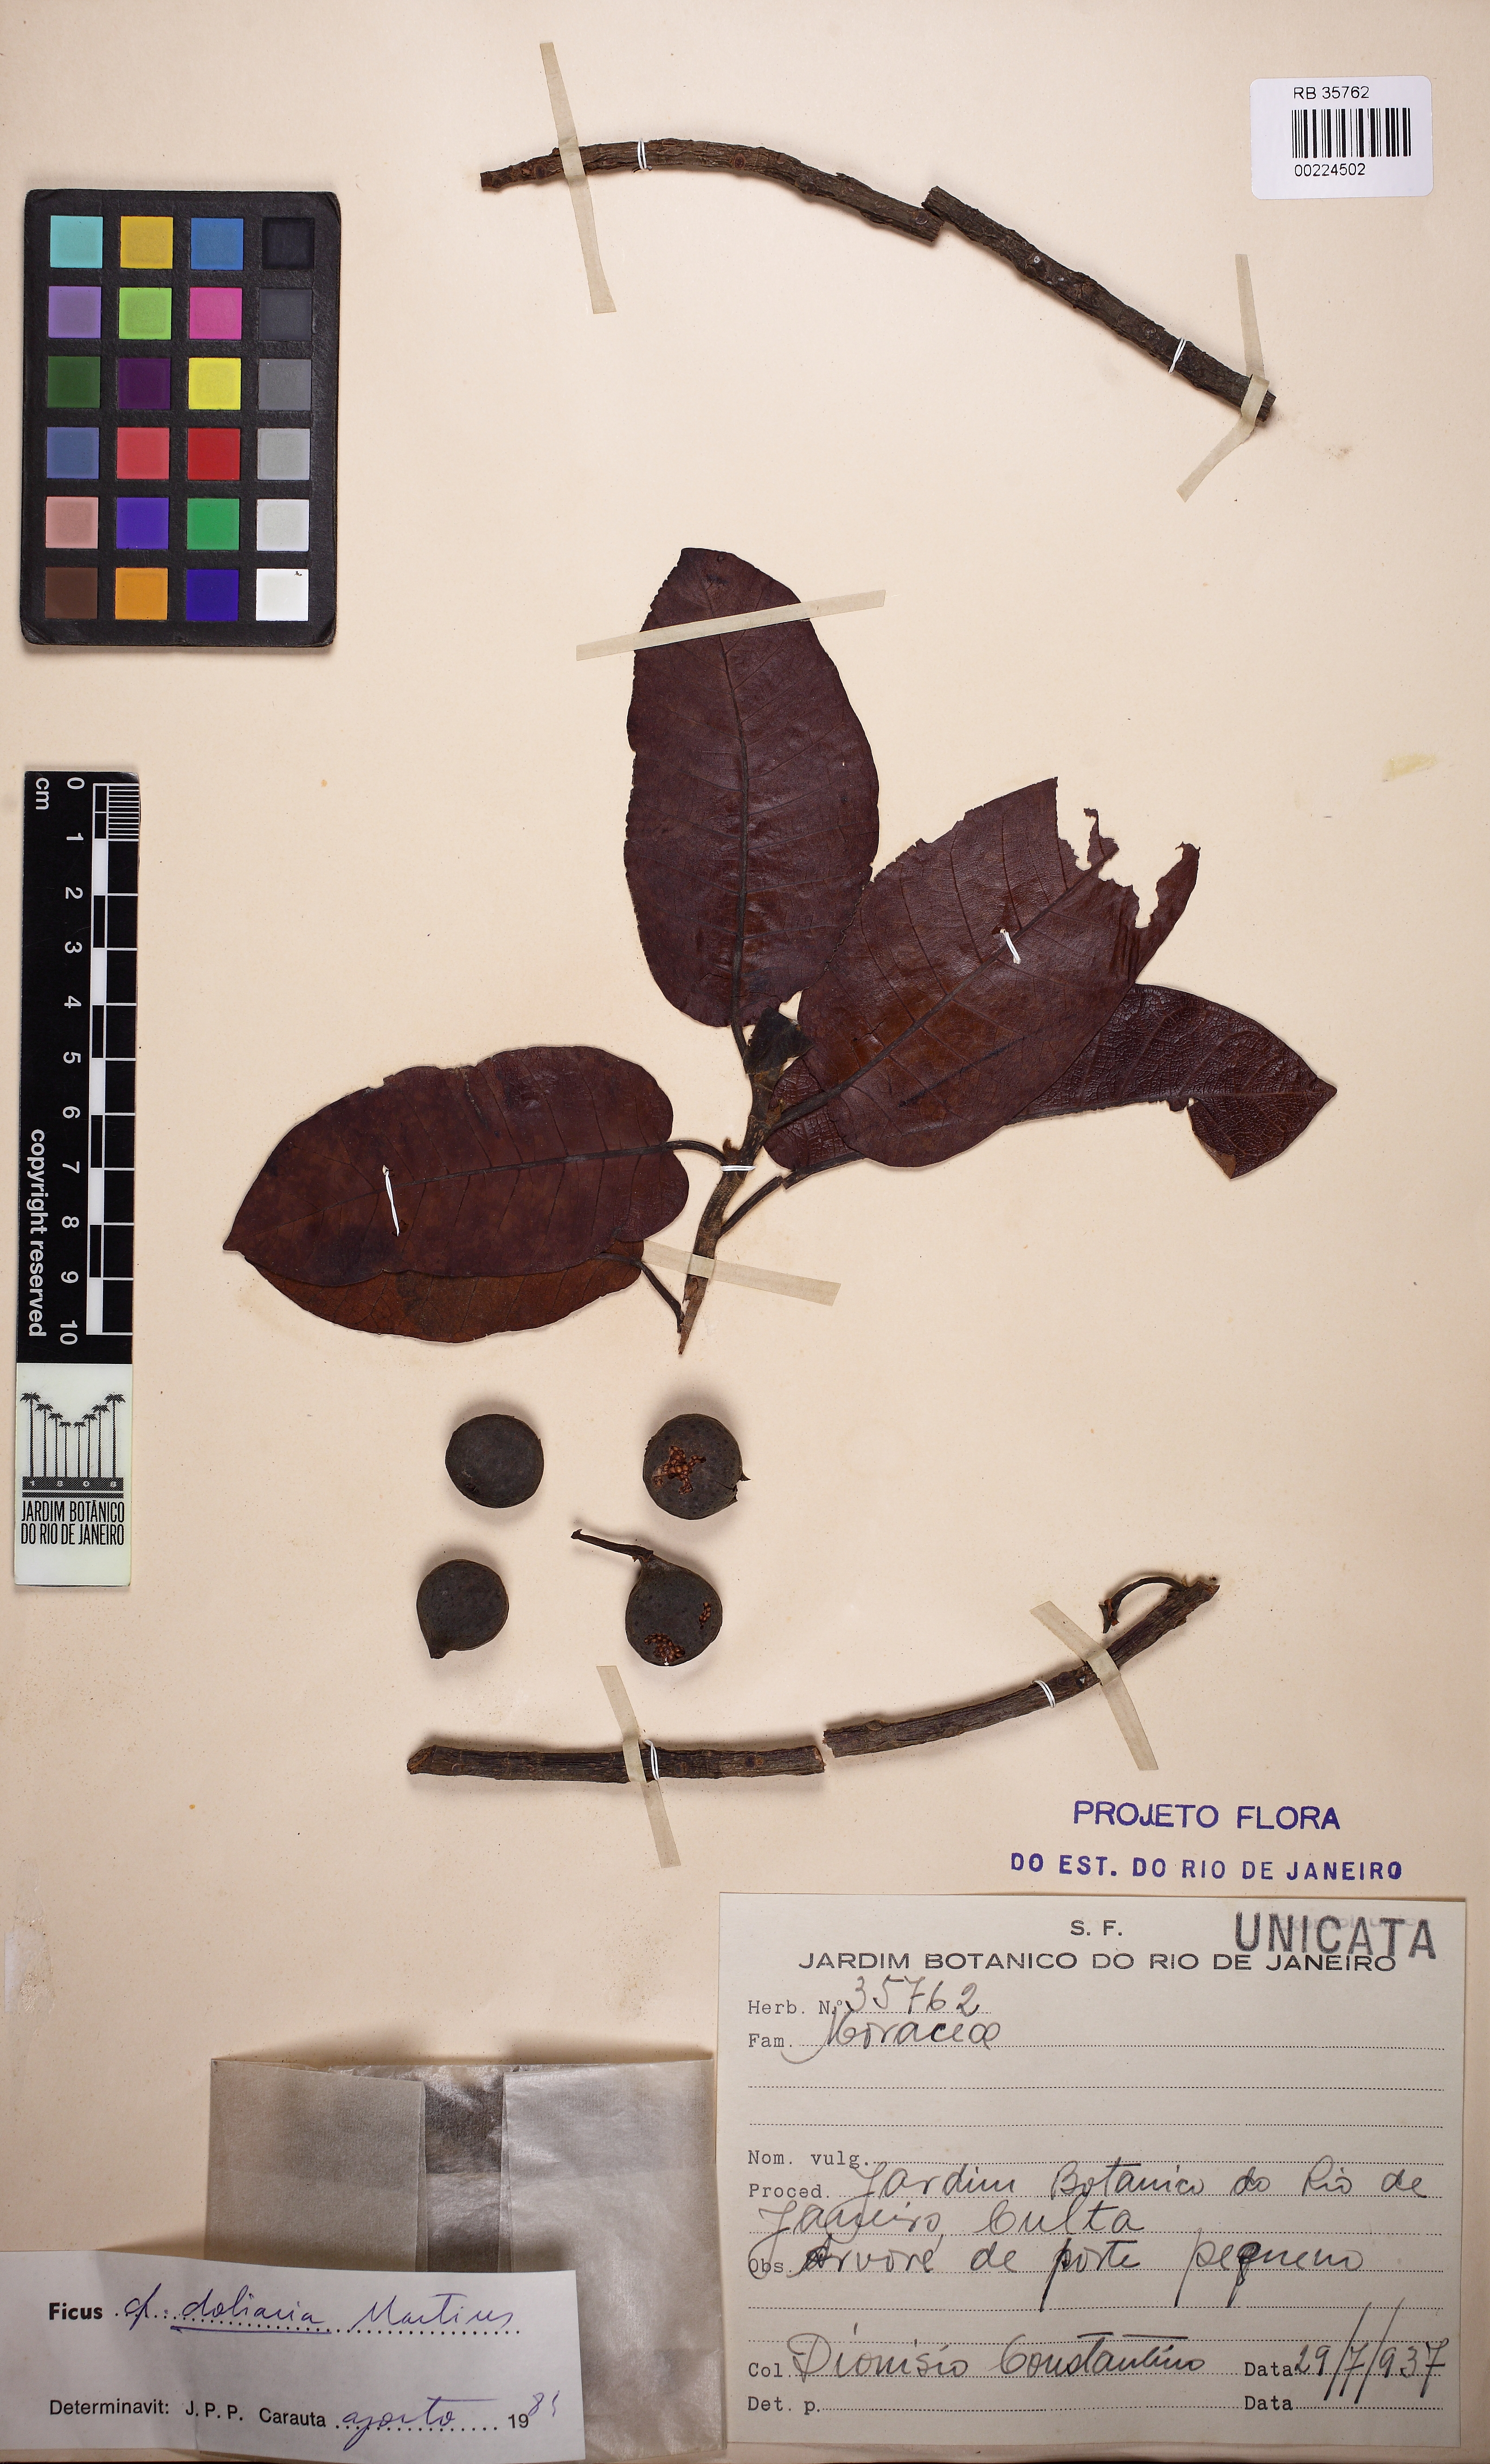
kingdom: Plantae
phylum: Tracheophyta
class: Magnoliopsida
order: Rosales
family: Moraceae
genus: Ficus
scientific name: Ficus crocata
